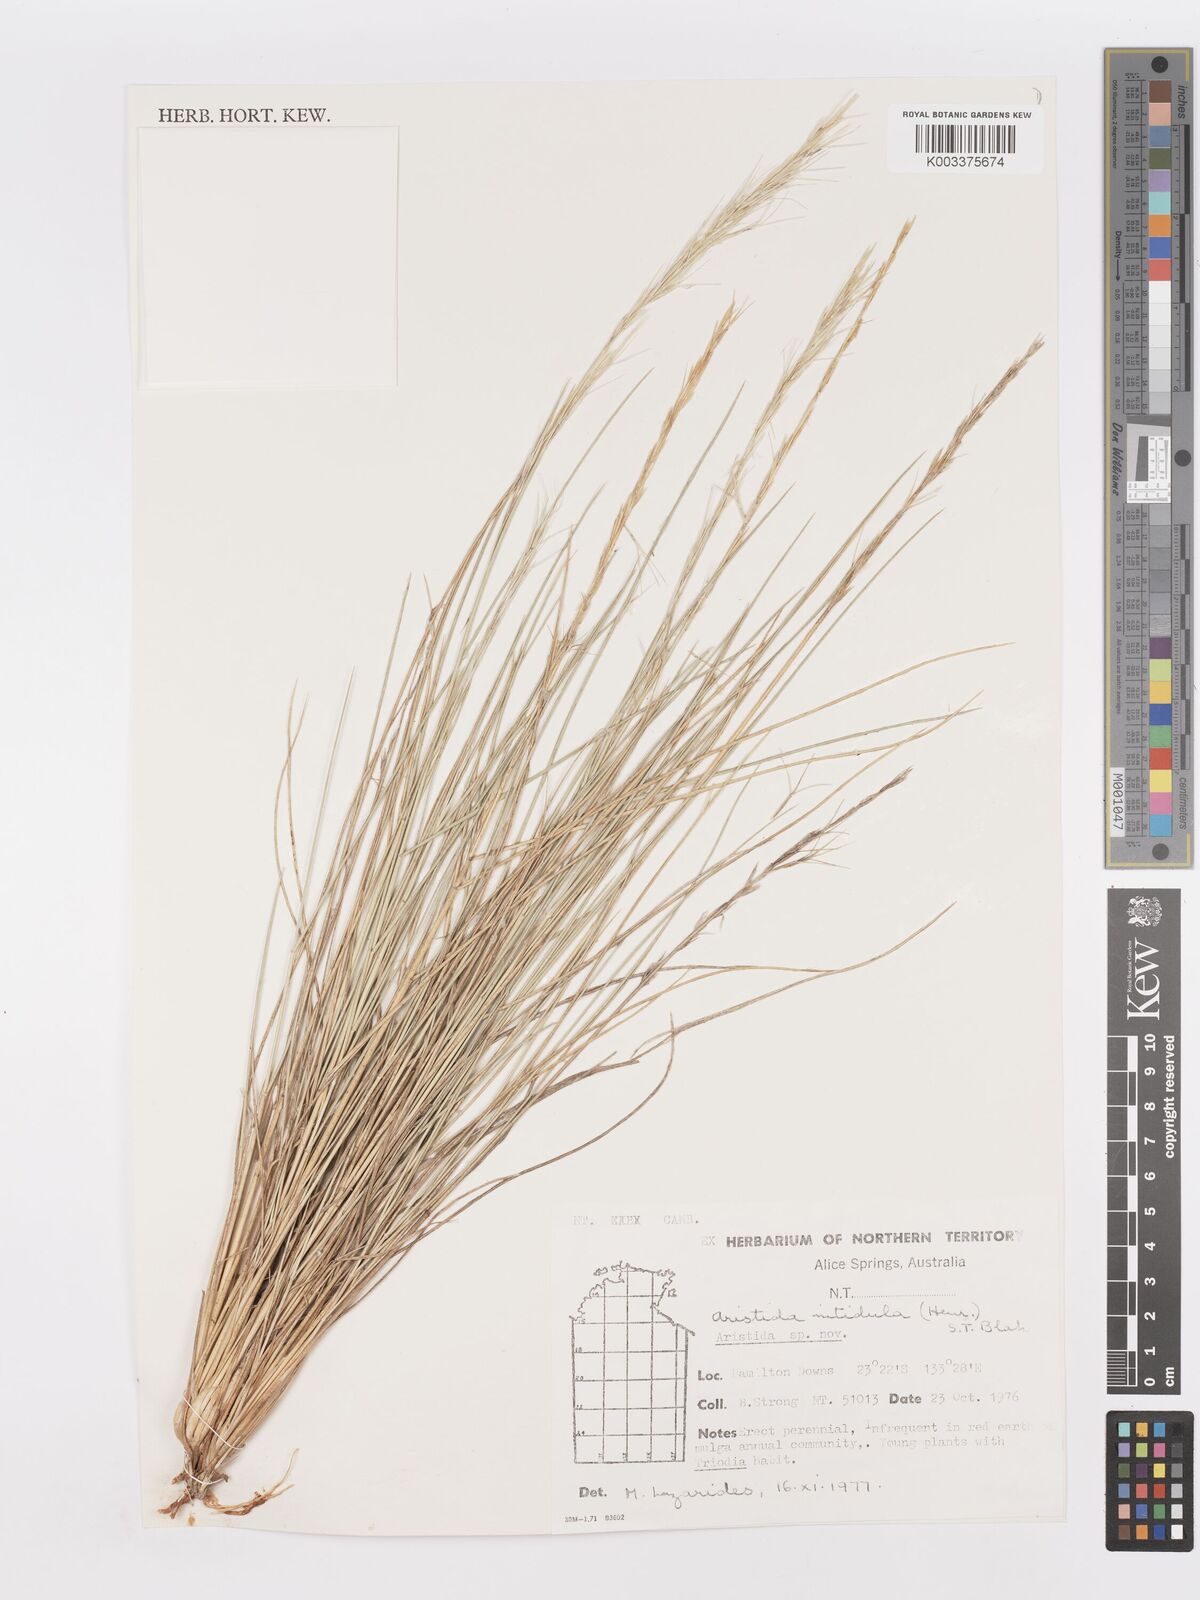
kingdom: Plantae
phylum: Tracheophyta
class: Liliopsida
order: Poales
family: Poaceae
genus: Aristida
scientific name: Aristida nitidula
